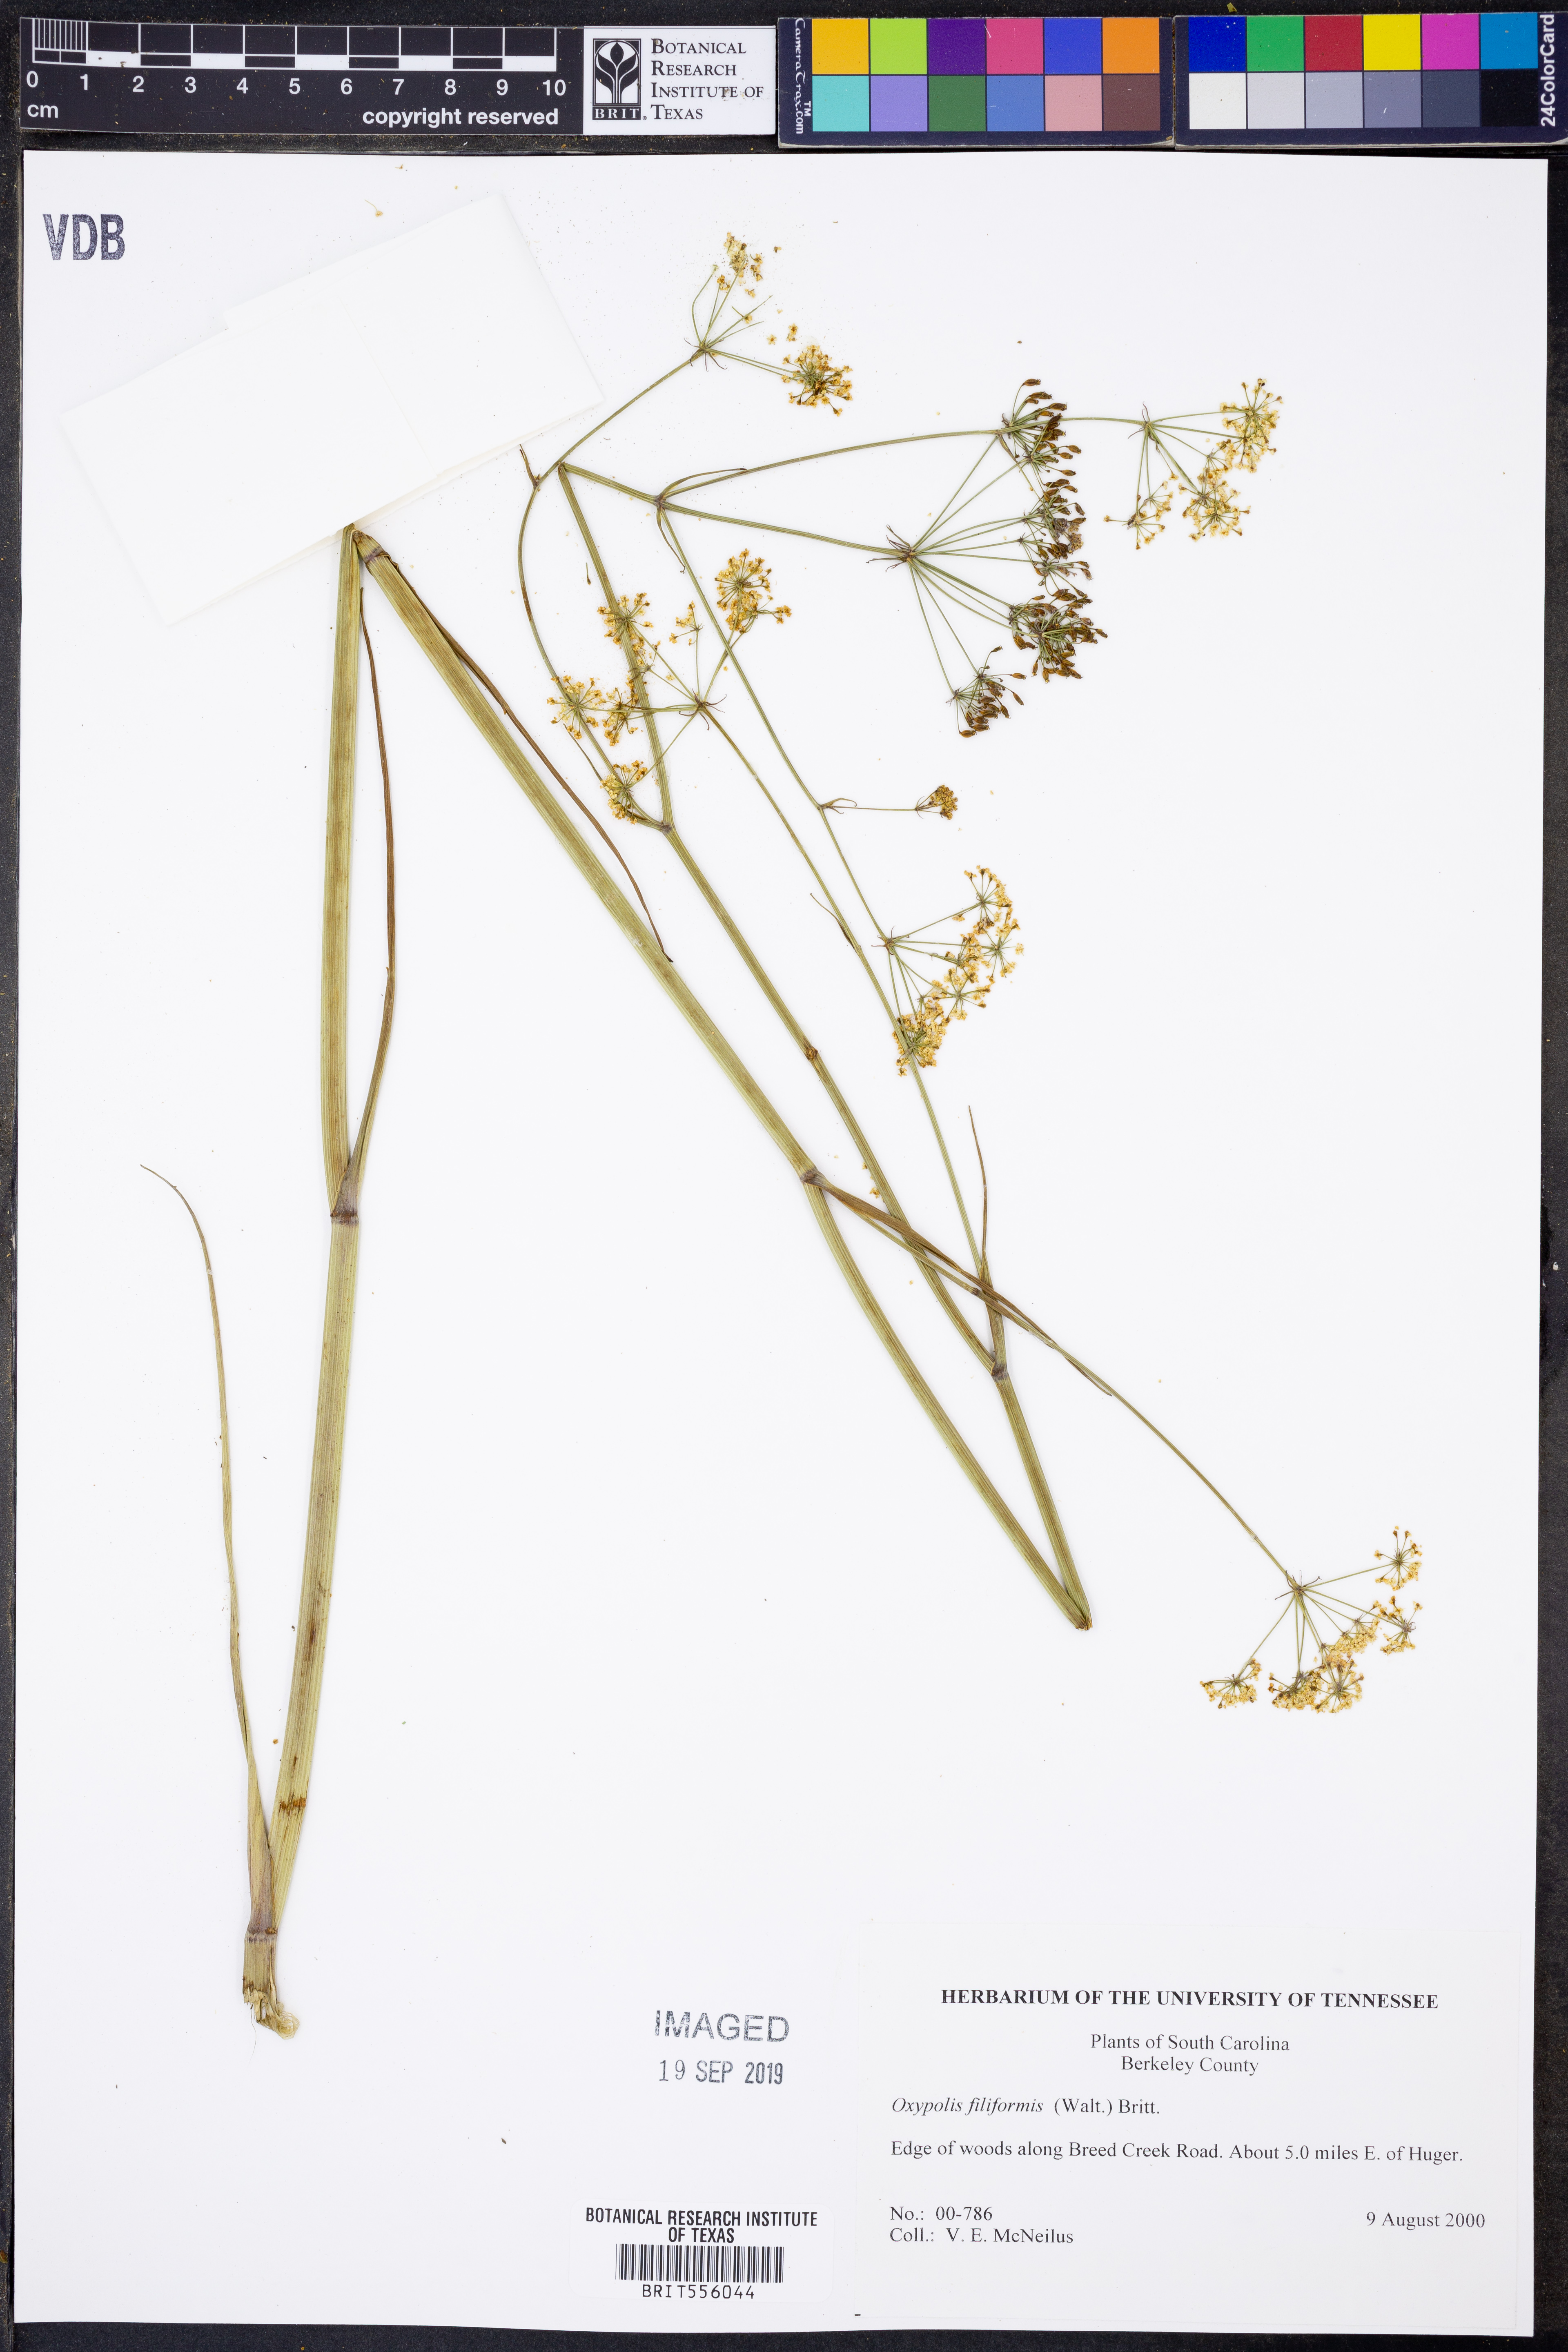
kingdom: Plantae
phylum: Tracheophyta
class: Magnoliopsida
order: Apiales
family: Apiaceae
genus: Tiedemannia
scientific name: Tiedemannia filiformis
